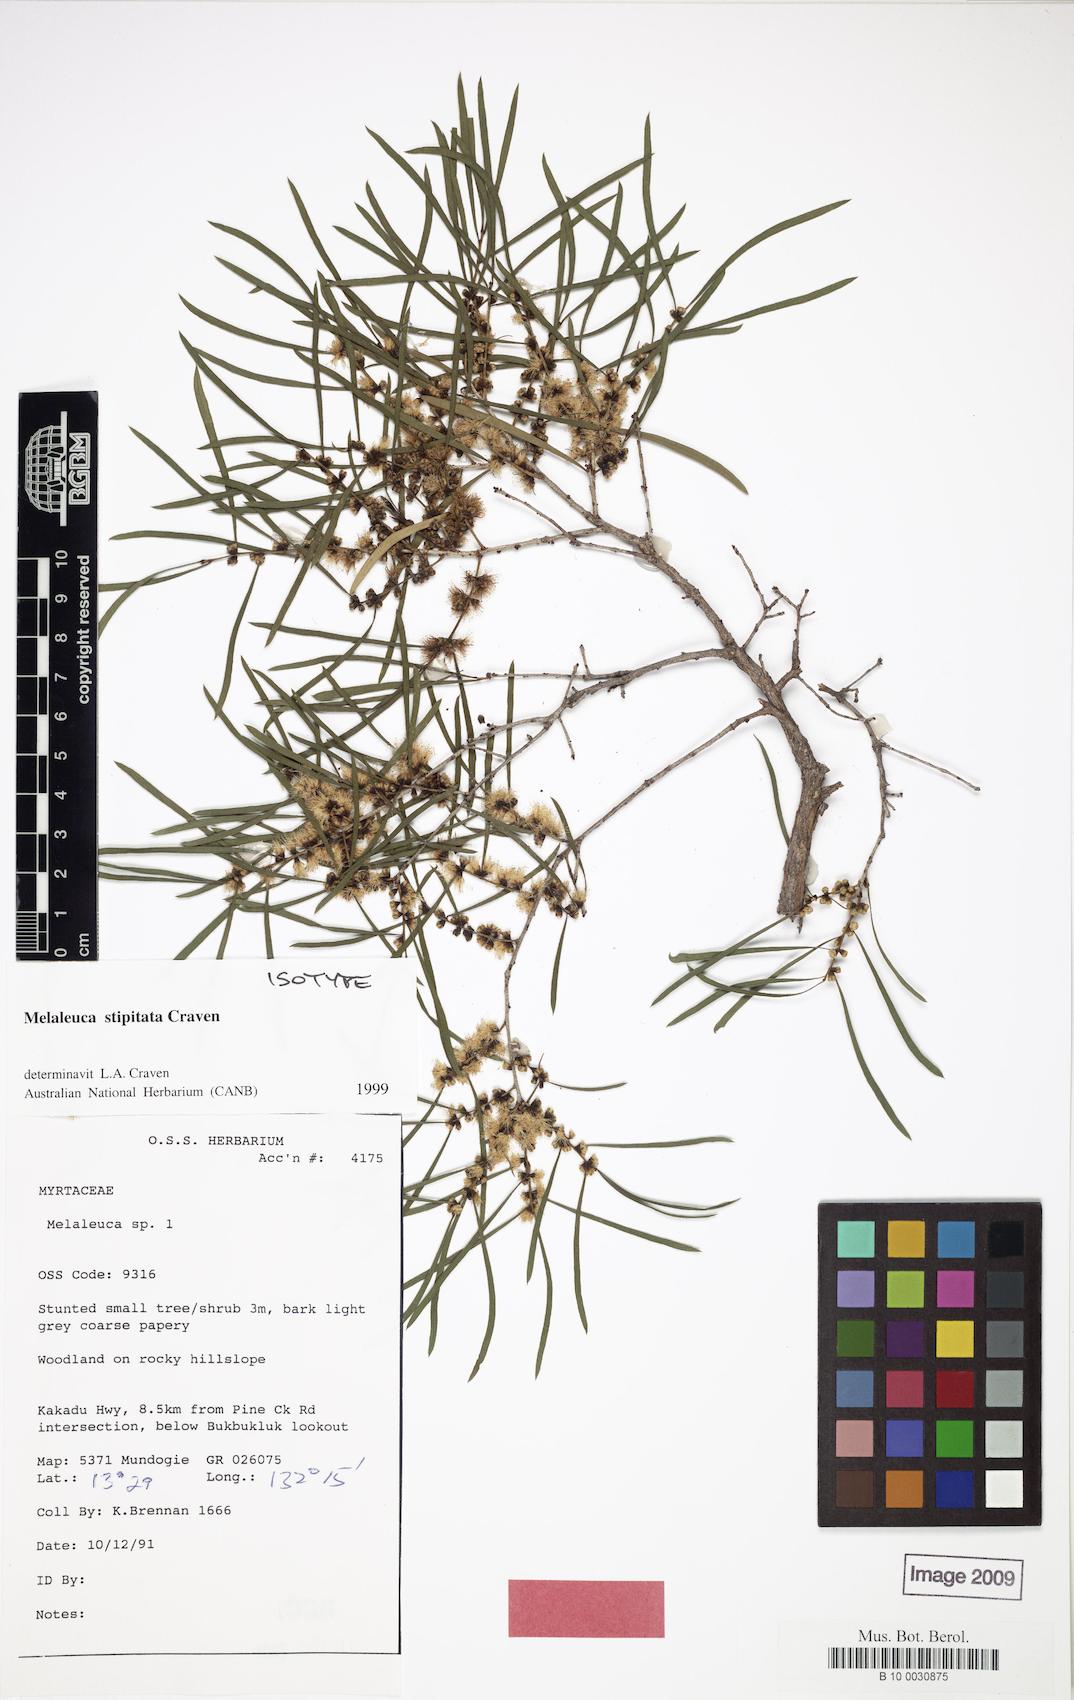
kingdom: Plantae
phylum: Tracheophyta
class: Magnoliopsida
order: Myrtales
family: Myrtaceae
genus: Melaleuca
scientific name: Melaleuca stipitata
